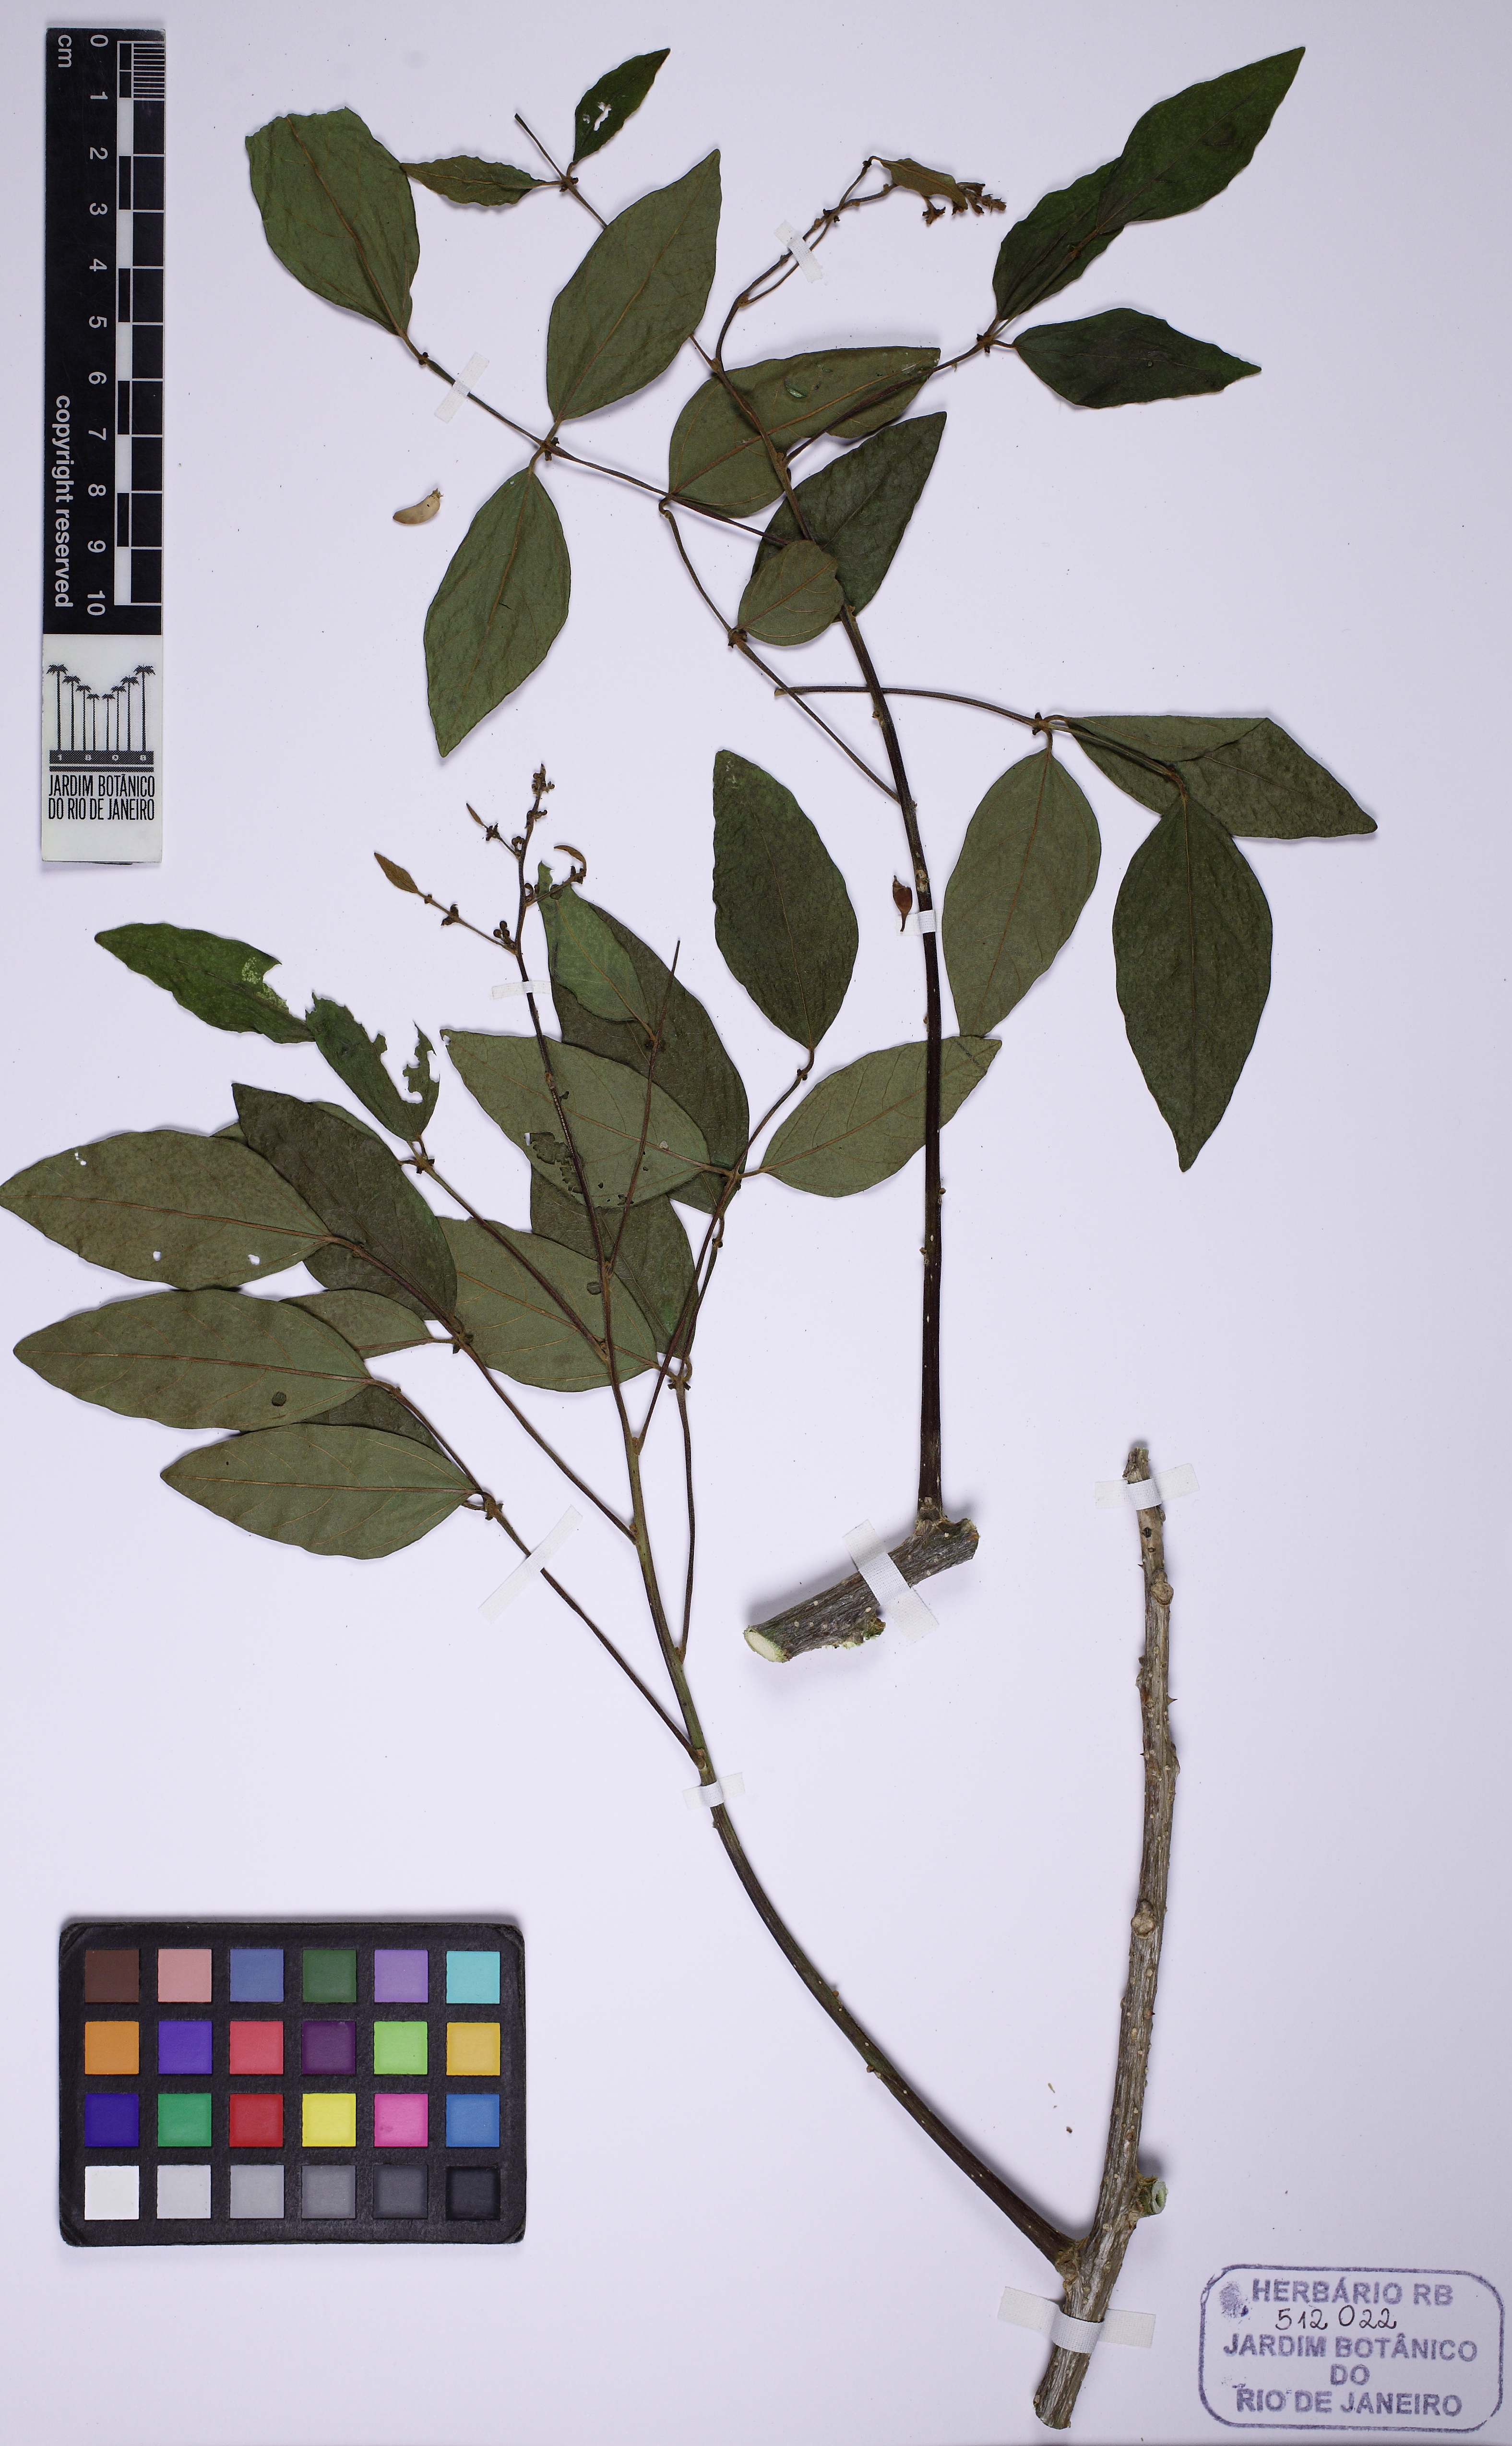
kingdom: Plantae
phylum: Tracheophyta
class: Magnoliopsida
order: Fabales
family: Fabaceae
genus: Erythrina
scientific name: Erythrina mulungu
